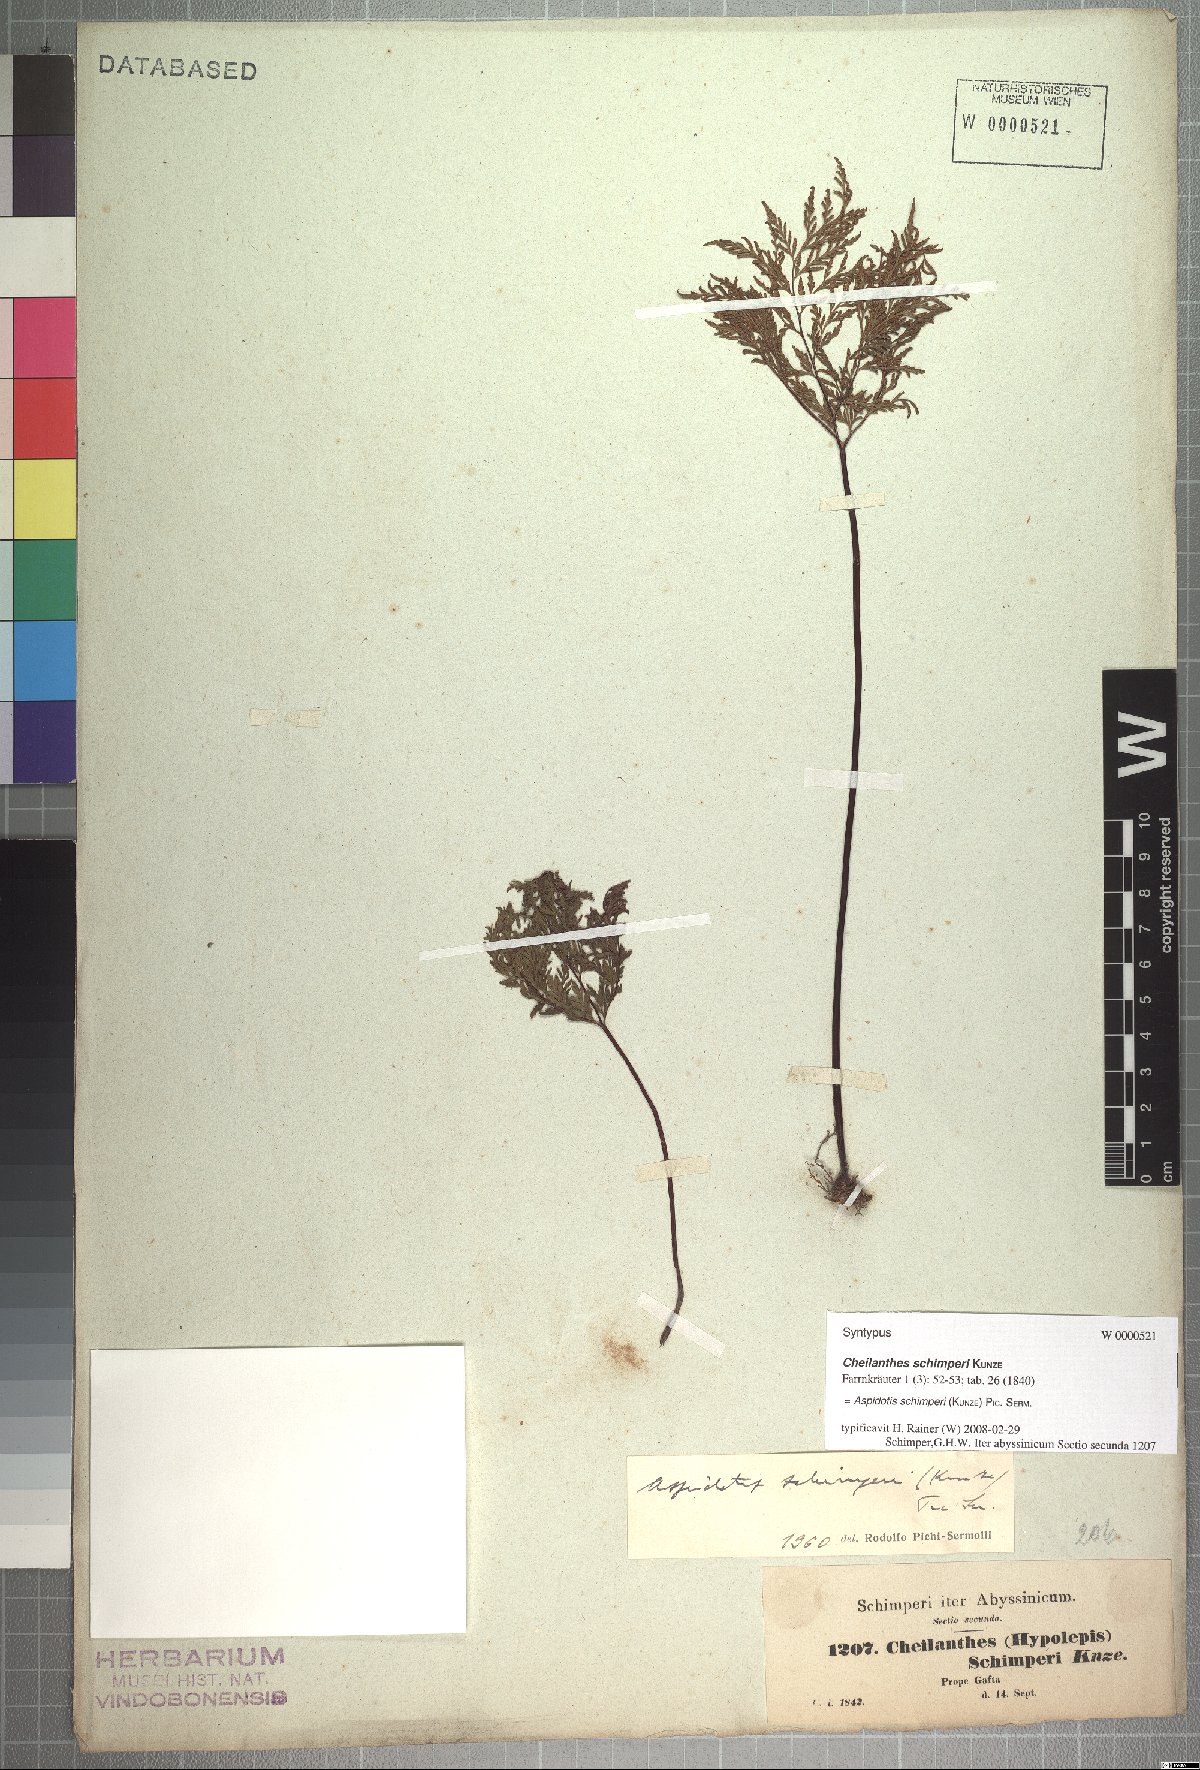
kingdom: Plantae
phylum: Tracheophyta
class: Polypodiopsida
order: Polypodiales
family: Pteridaceae
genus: Cheilanthes
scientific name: Cheilanthes schimperi
